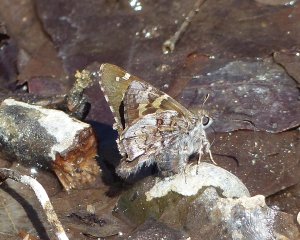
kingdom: Animalia
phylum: Arthropoda
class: Insecta
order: Lepidoptera
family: Hesperiidae
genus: Zestusa
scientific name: Zestusa dorus
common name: Short-tailed Skipper
